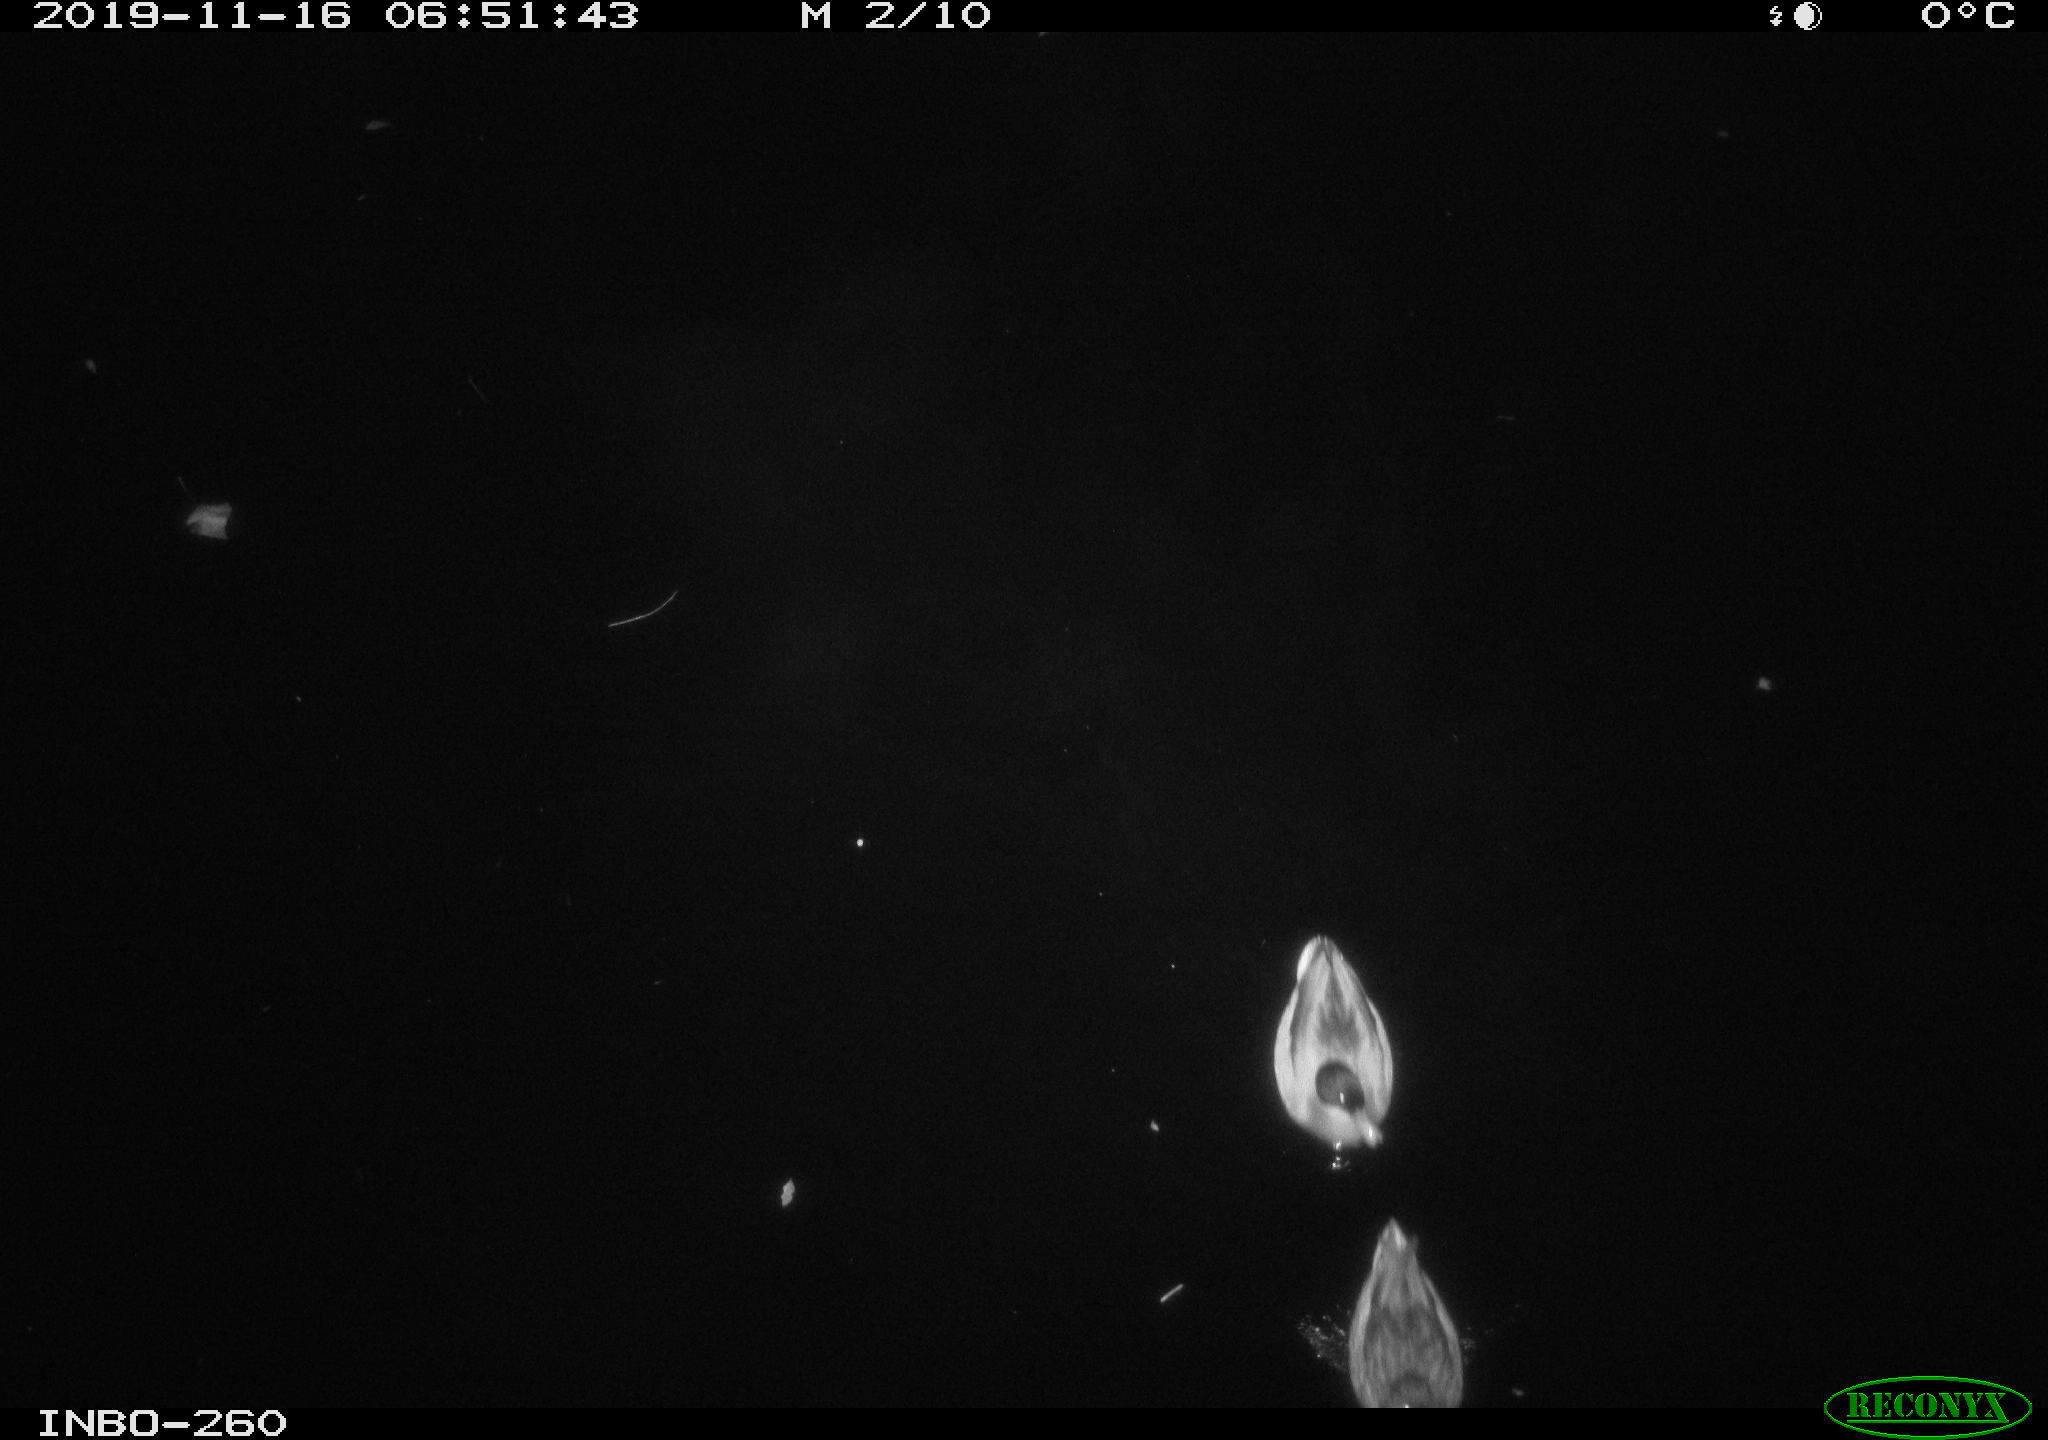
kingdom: Animalia
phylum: Chordata
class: Aves
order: Anseriformes
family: Anatidae
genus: Anas
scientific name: Anas platyrhynchos
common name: Mallard
